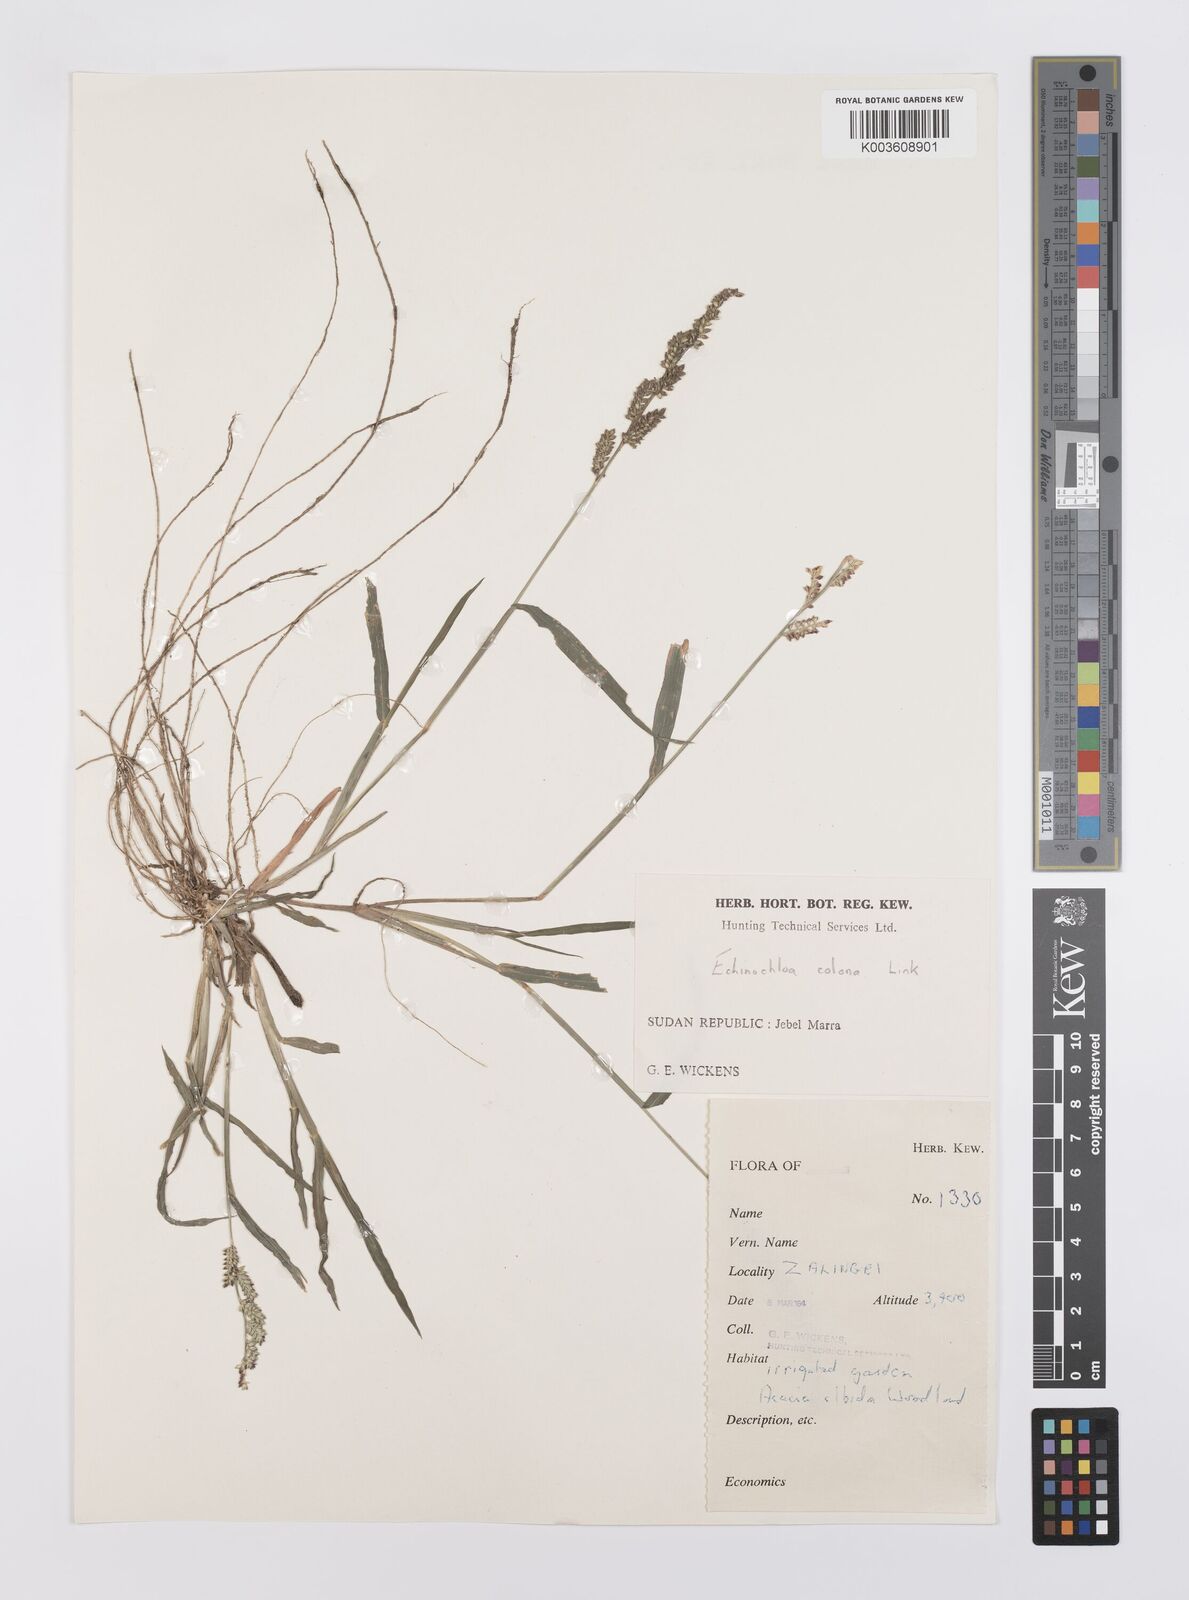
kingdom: Plantae
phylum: Tracheophyta
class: Liliopsida
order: Poales
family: Poaceae
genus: Echinochloa
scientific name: Echinochloa colonum
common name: Jungle rice
